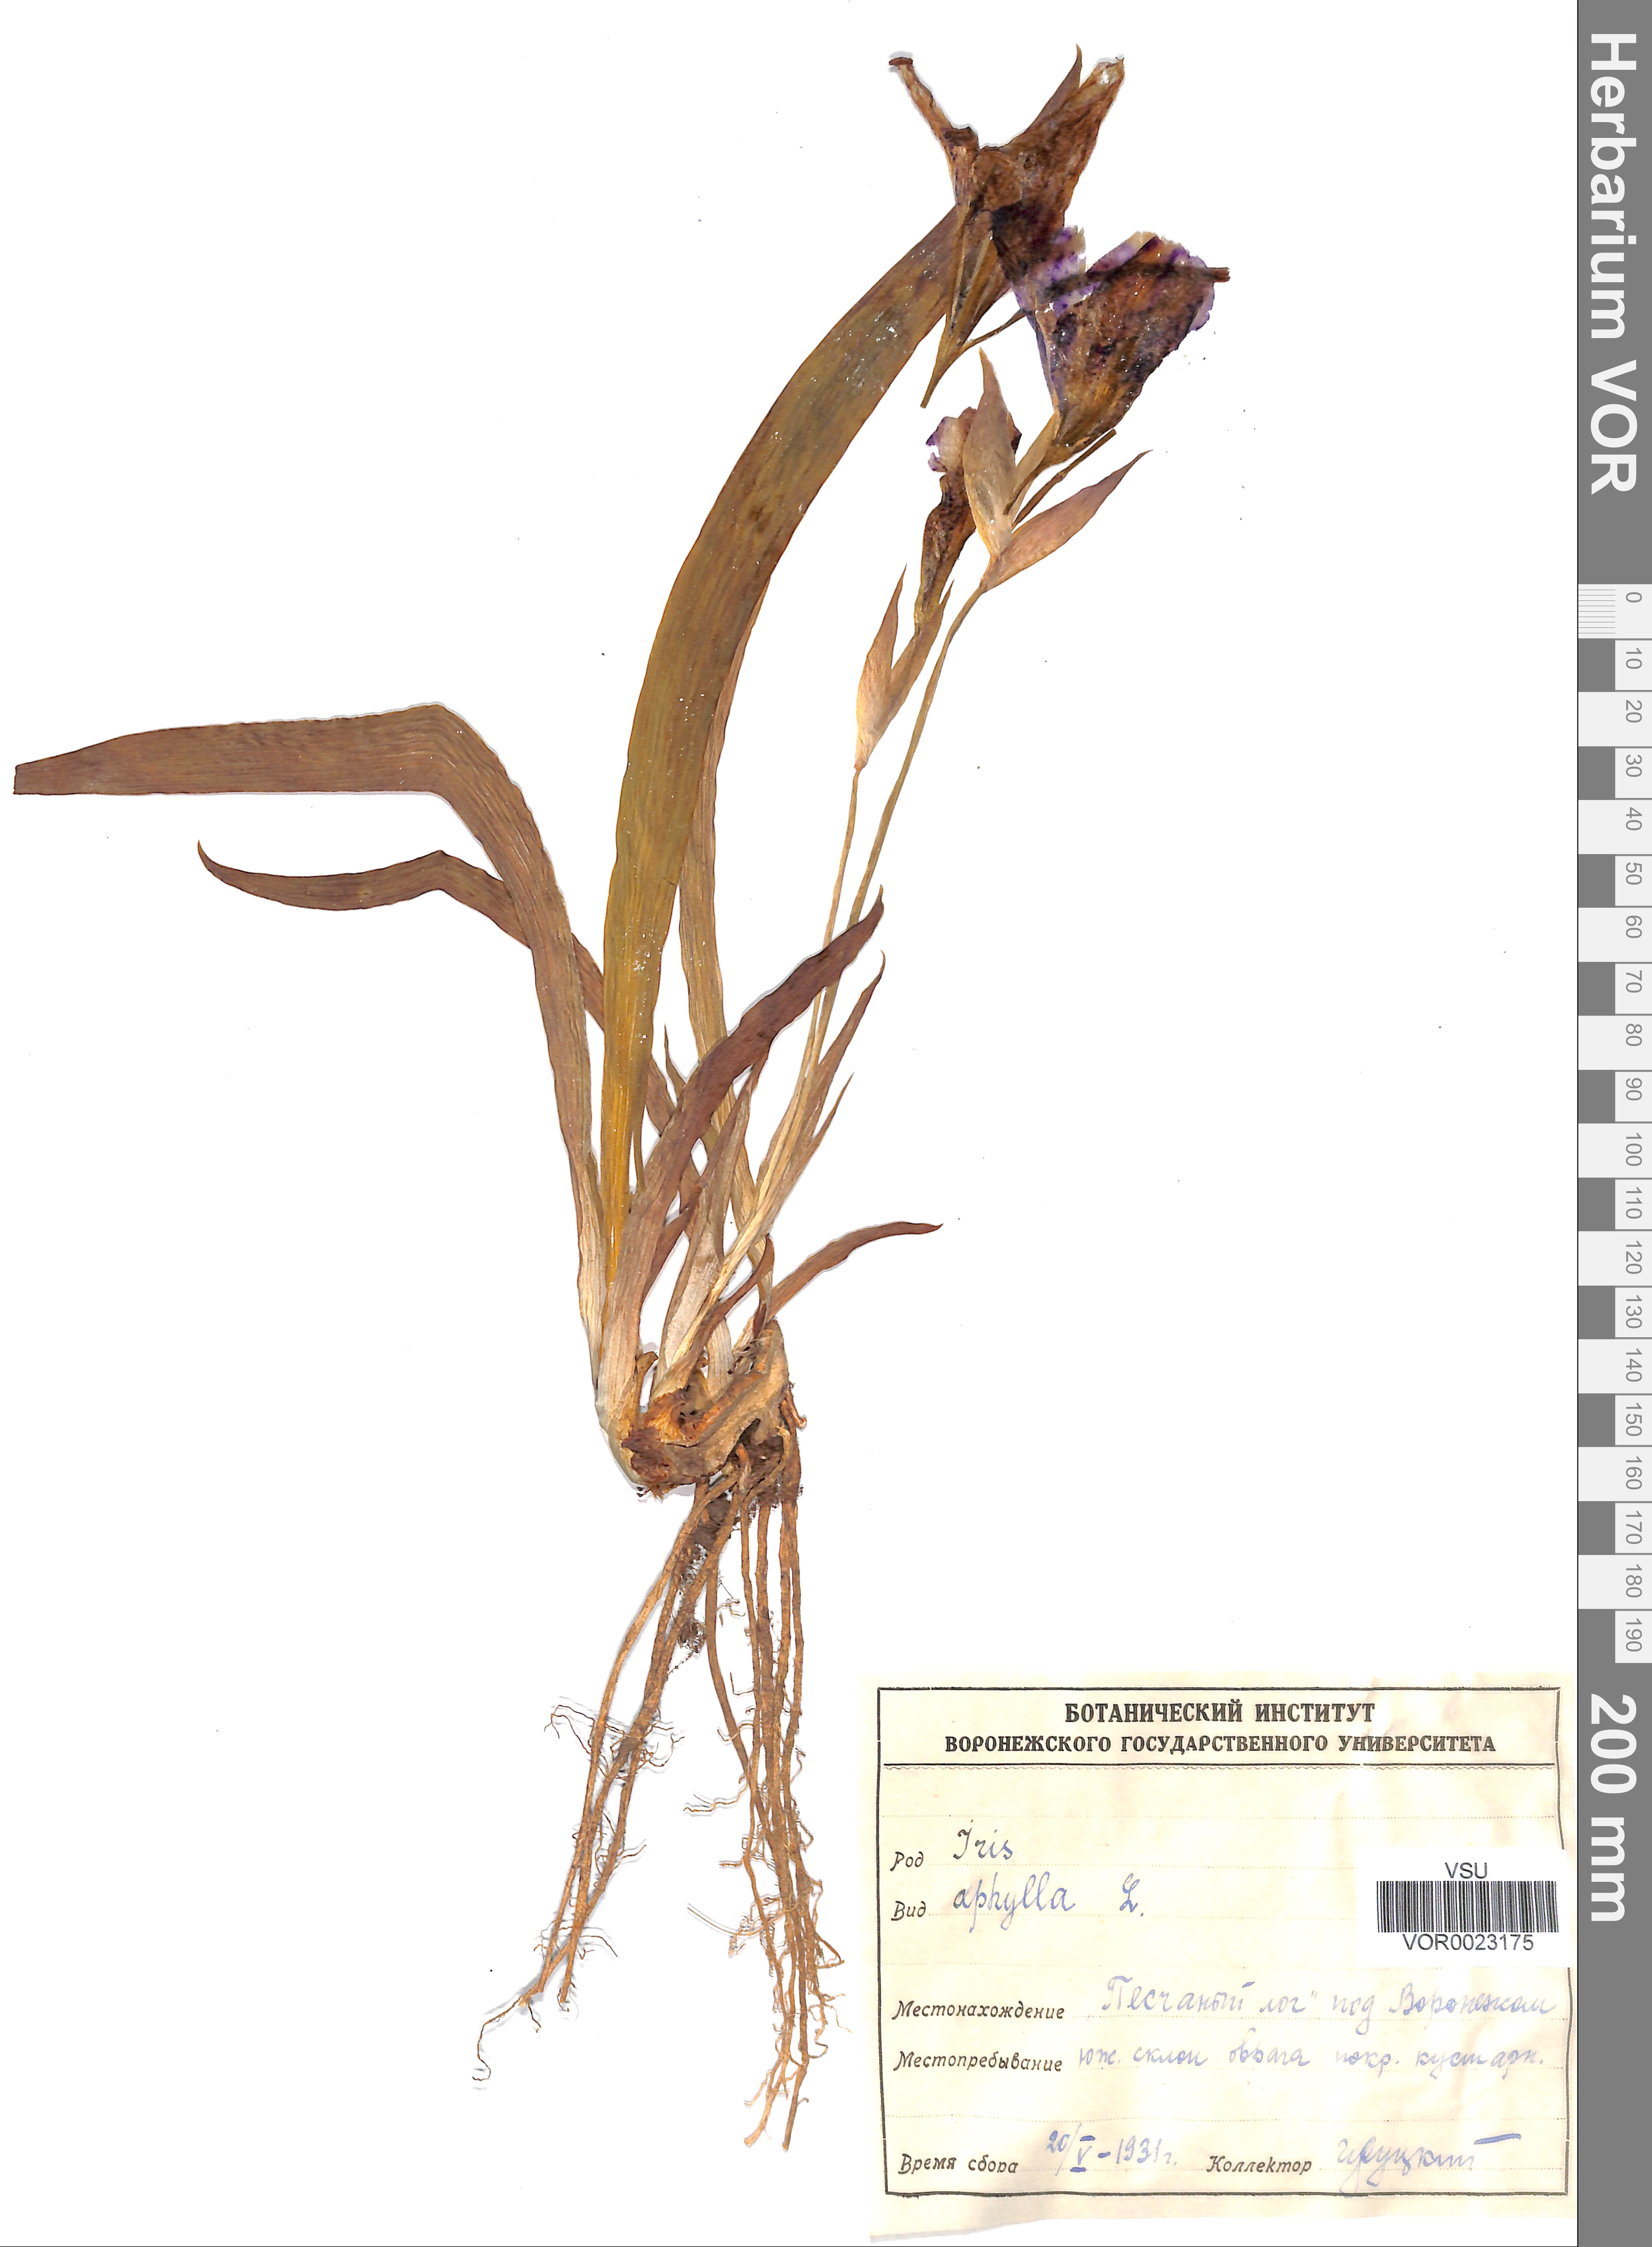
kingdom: Plantae
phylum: Tracheophyta
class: Liliopsida
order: Asparagales
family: Iridaceae
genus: Iris
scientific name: Iris aphylla
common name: Stool iris
